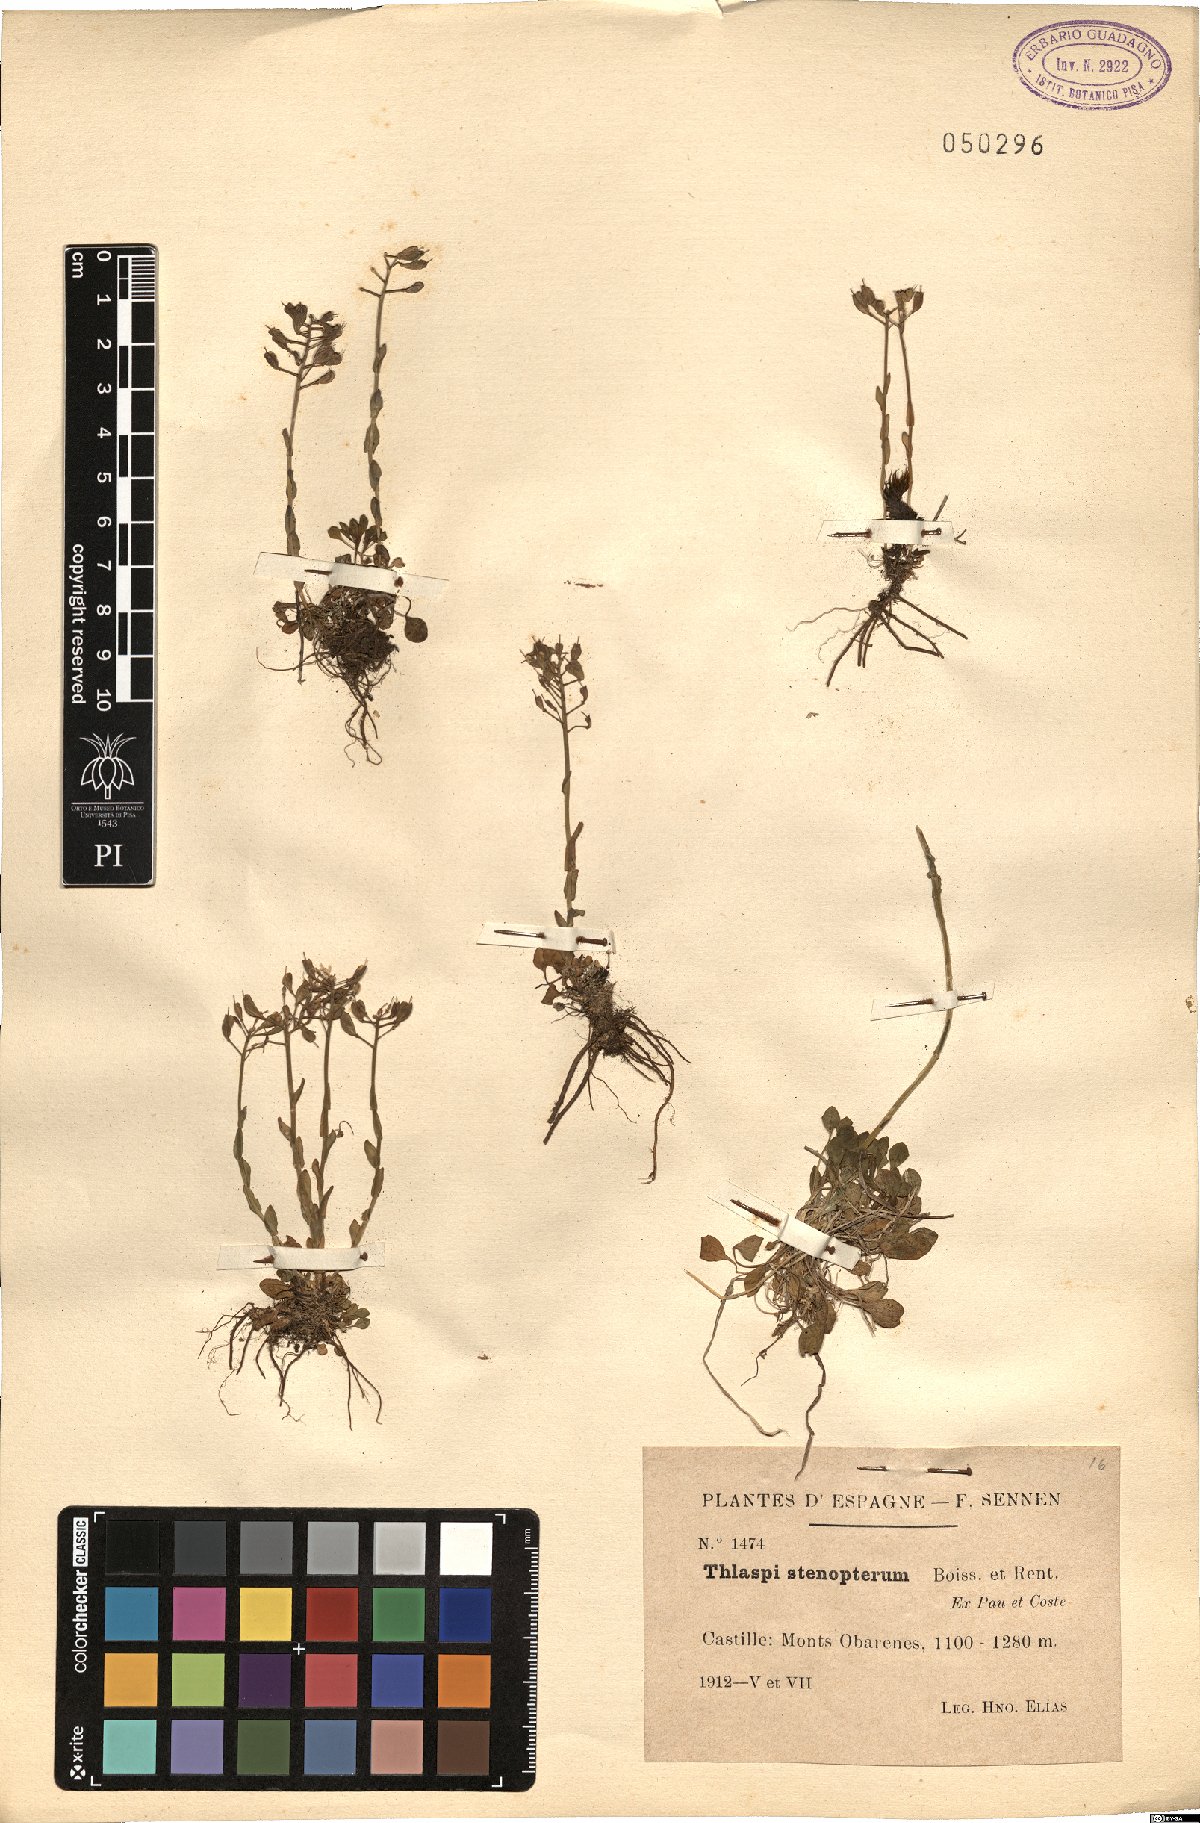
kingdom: Plantae
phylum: Tracheophyta
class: Magnoliopsida
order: Brassicales
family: Brassicaceae
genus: Noccaea
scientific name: Noccaea stenoptera
